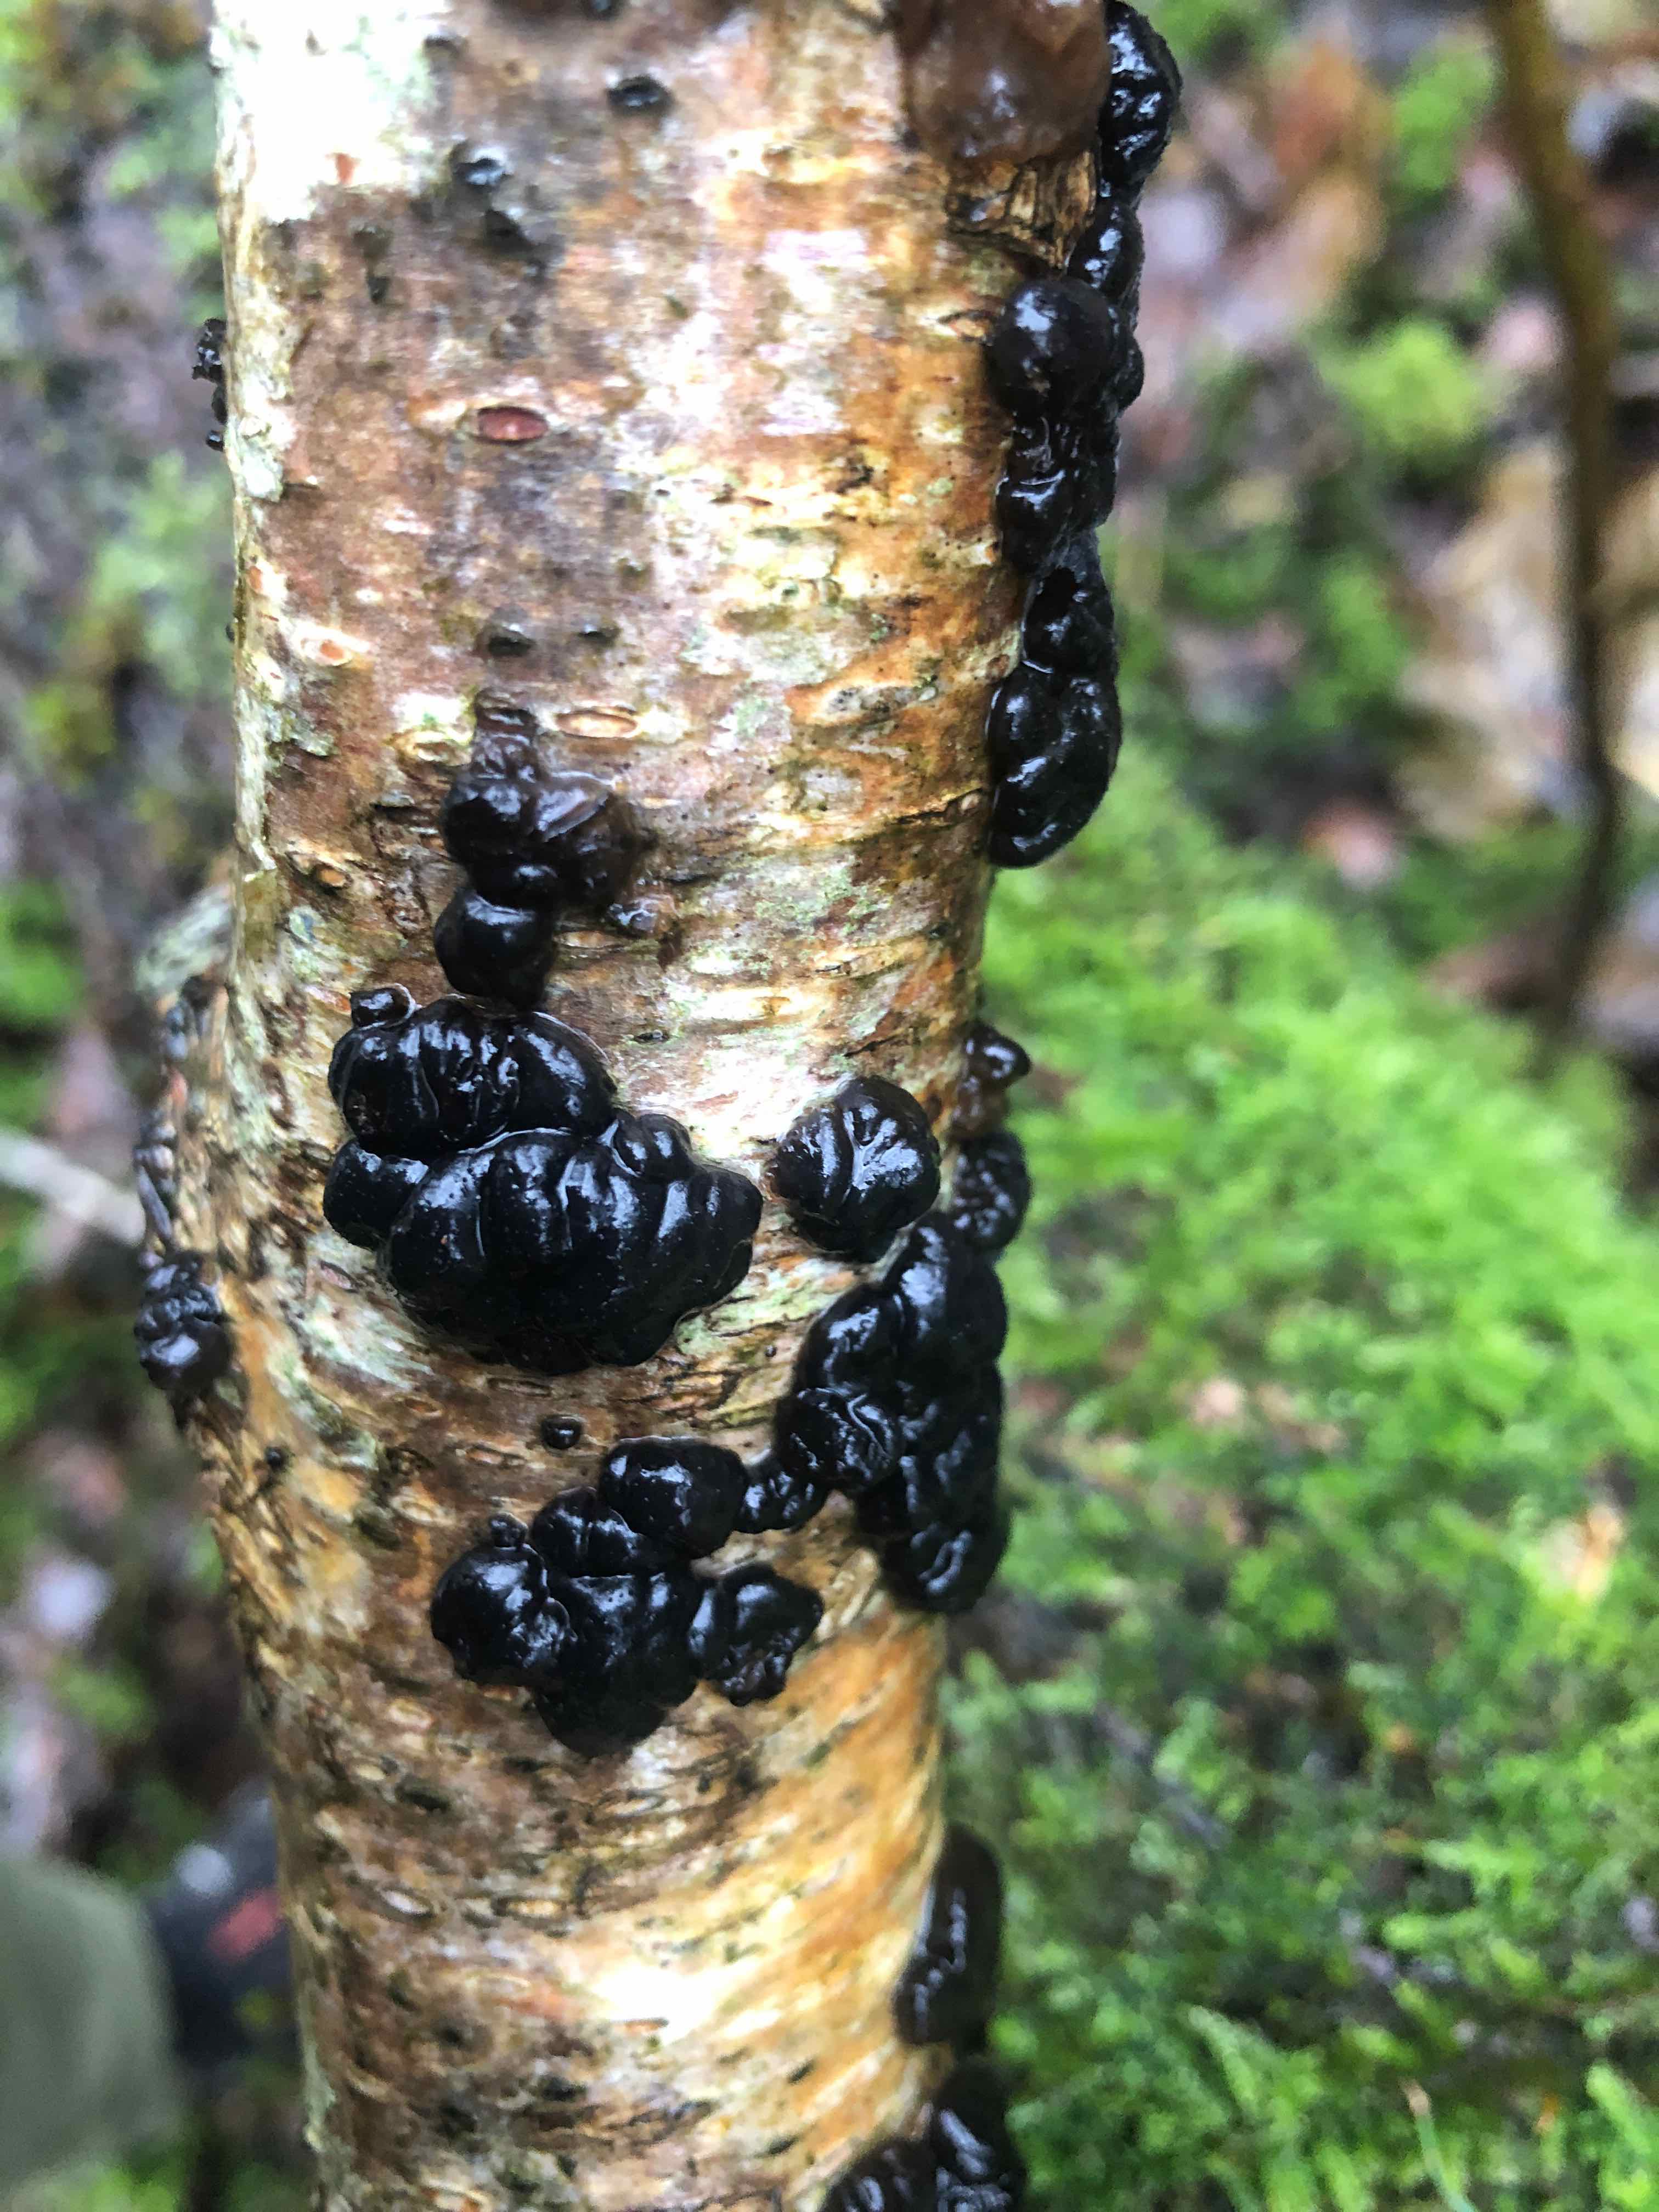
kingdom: Fungi
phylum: Basidiomycota
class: Agaricomycetes
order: Auriculariales
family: Auriculariaceae
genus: Exidia
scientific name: Exidia nigricans
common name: almindelig bævretop
